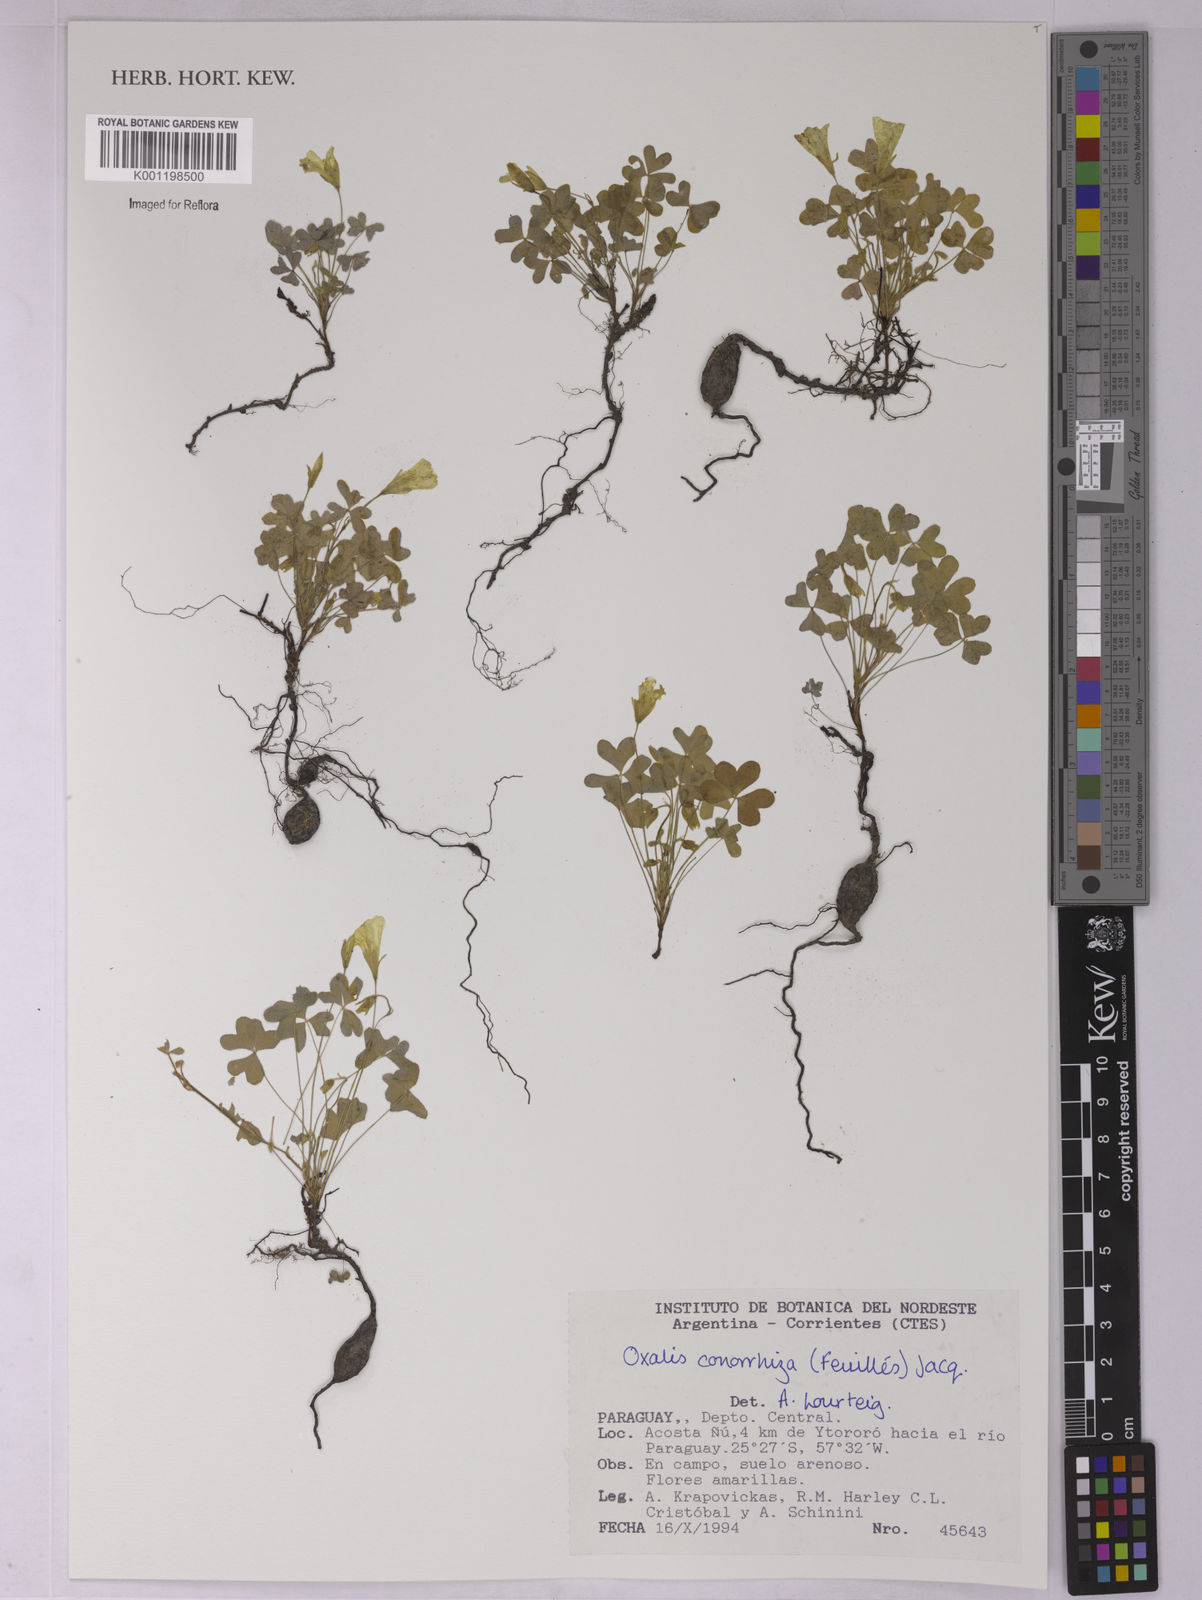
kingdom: Plantae
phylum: Tracheophyta
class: Magnoliopsida
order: Oxalidales
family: Oxalidaceae
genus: Oxalis
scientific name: Oxalis conorrhiza
